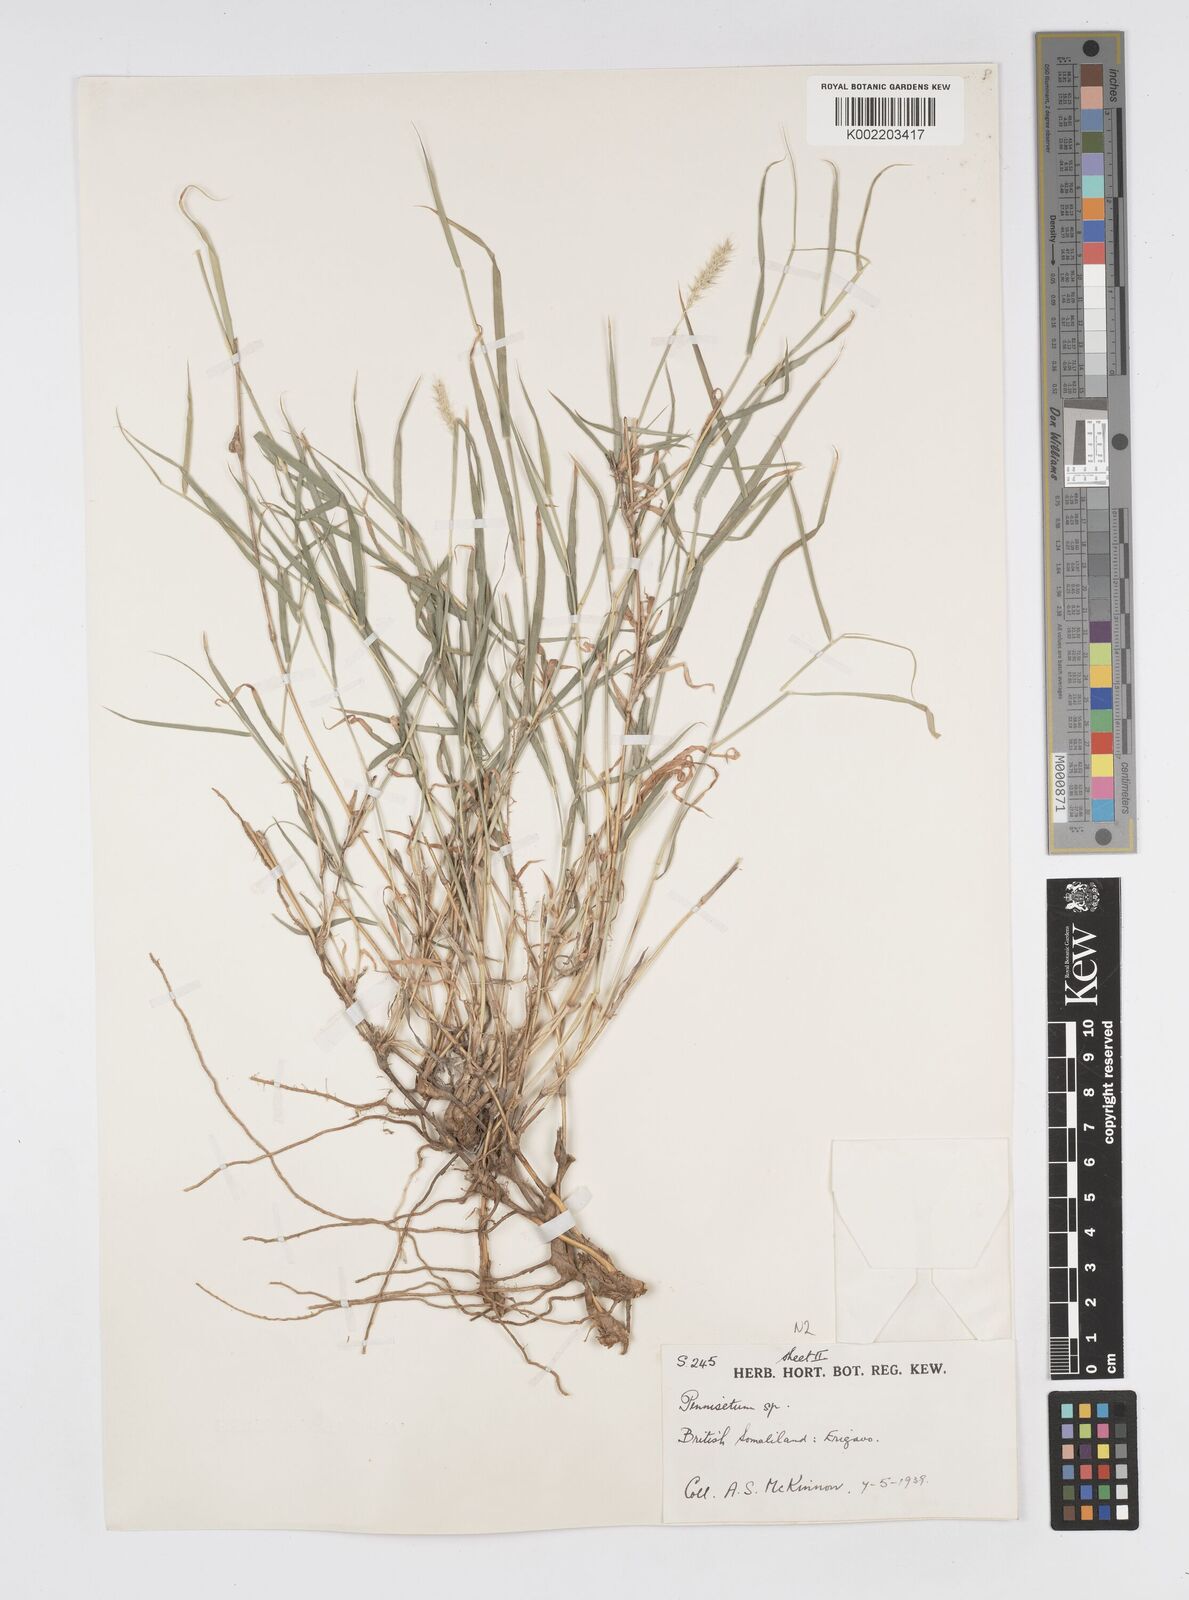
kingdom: Plantae
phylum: Tracheophyta
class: Liliopsida
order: Poales
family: Poaceae
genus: Cenchrus
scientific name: Cenchrus stramineus
